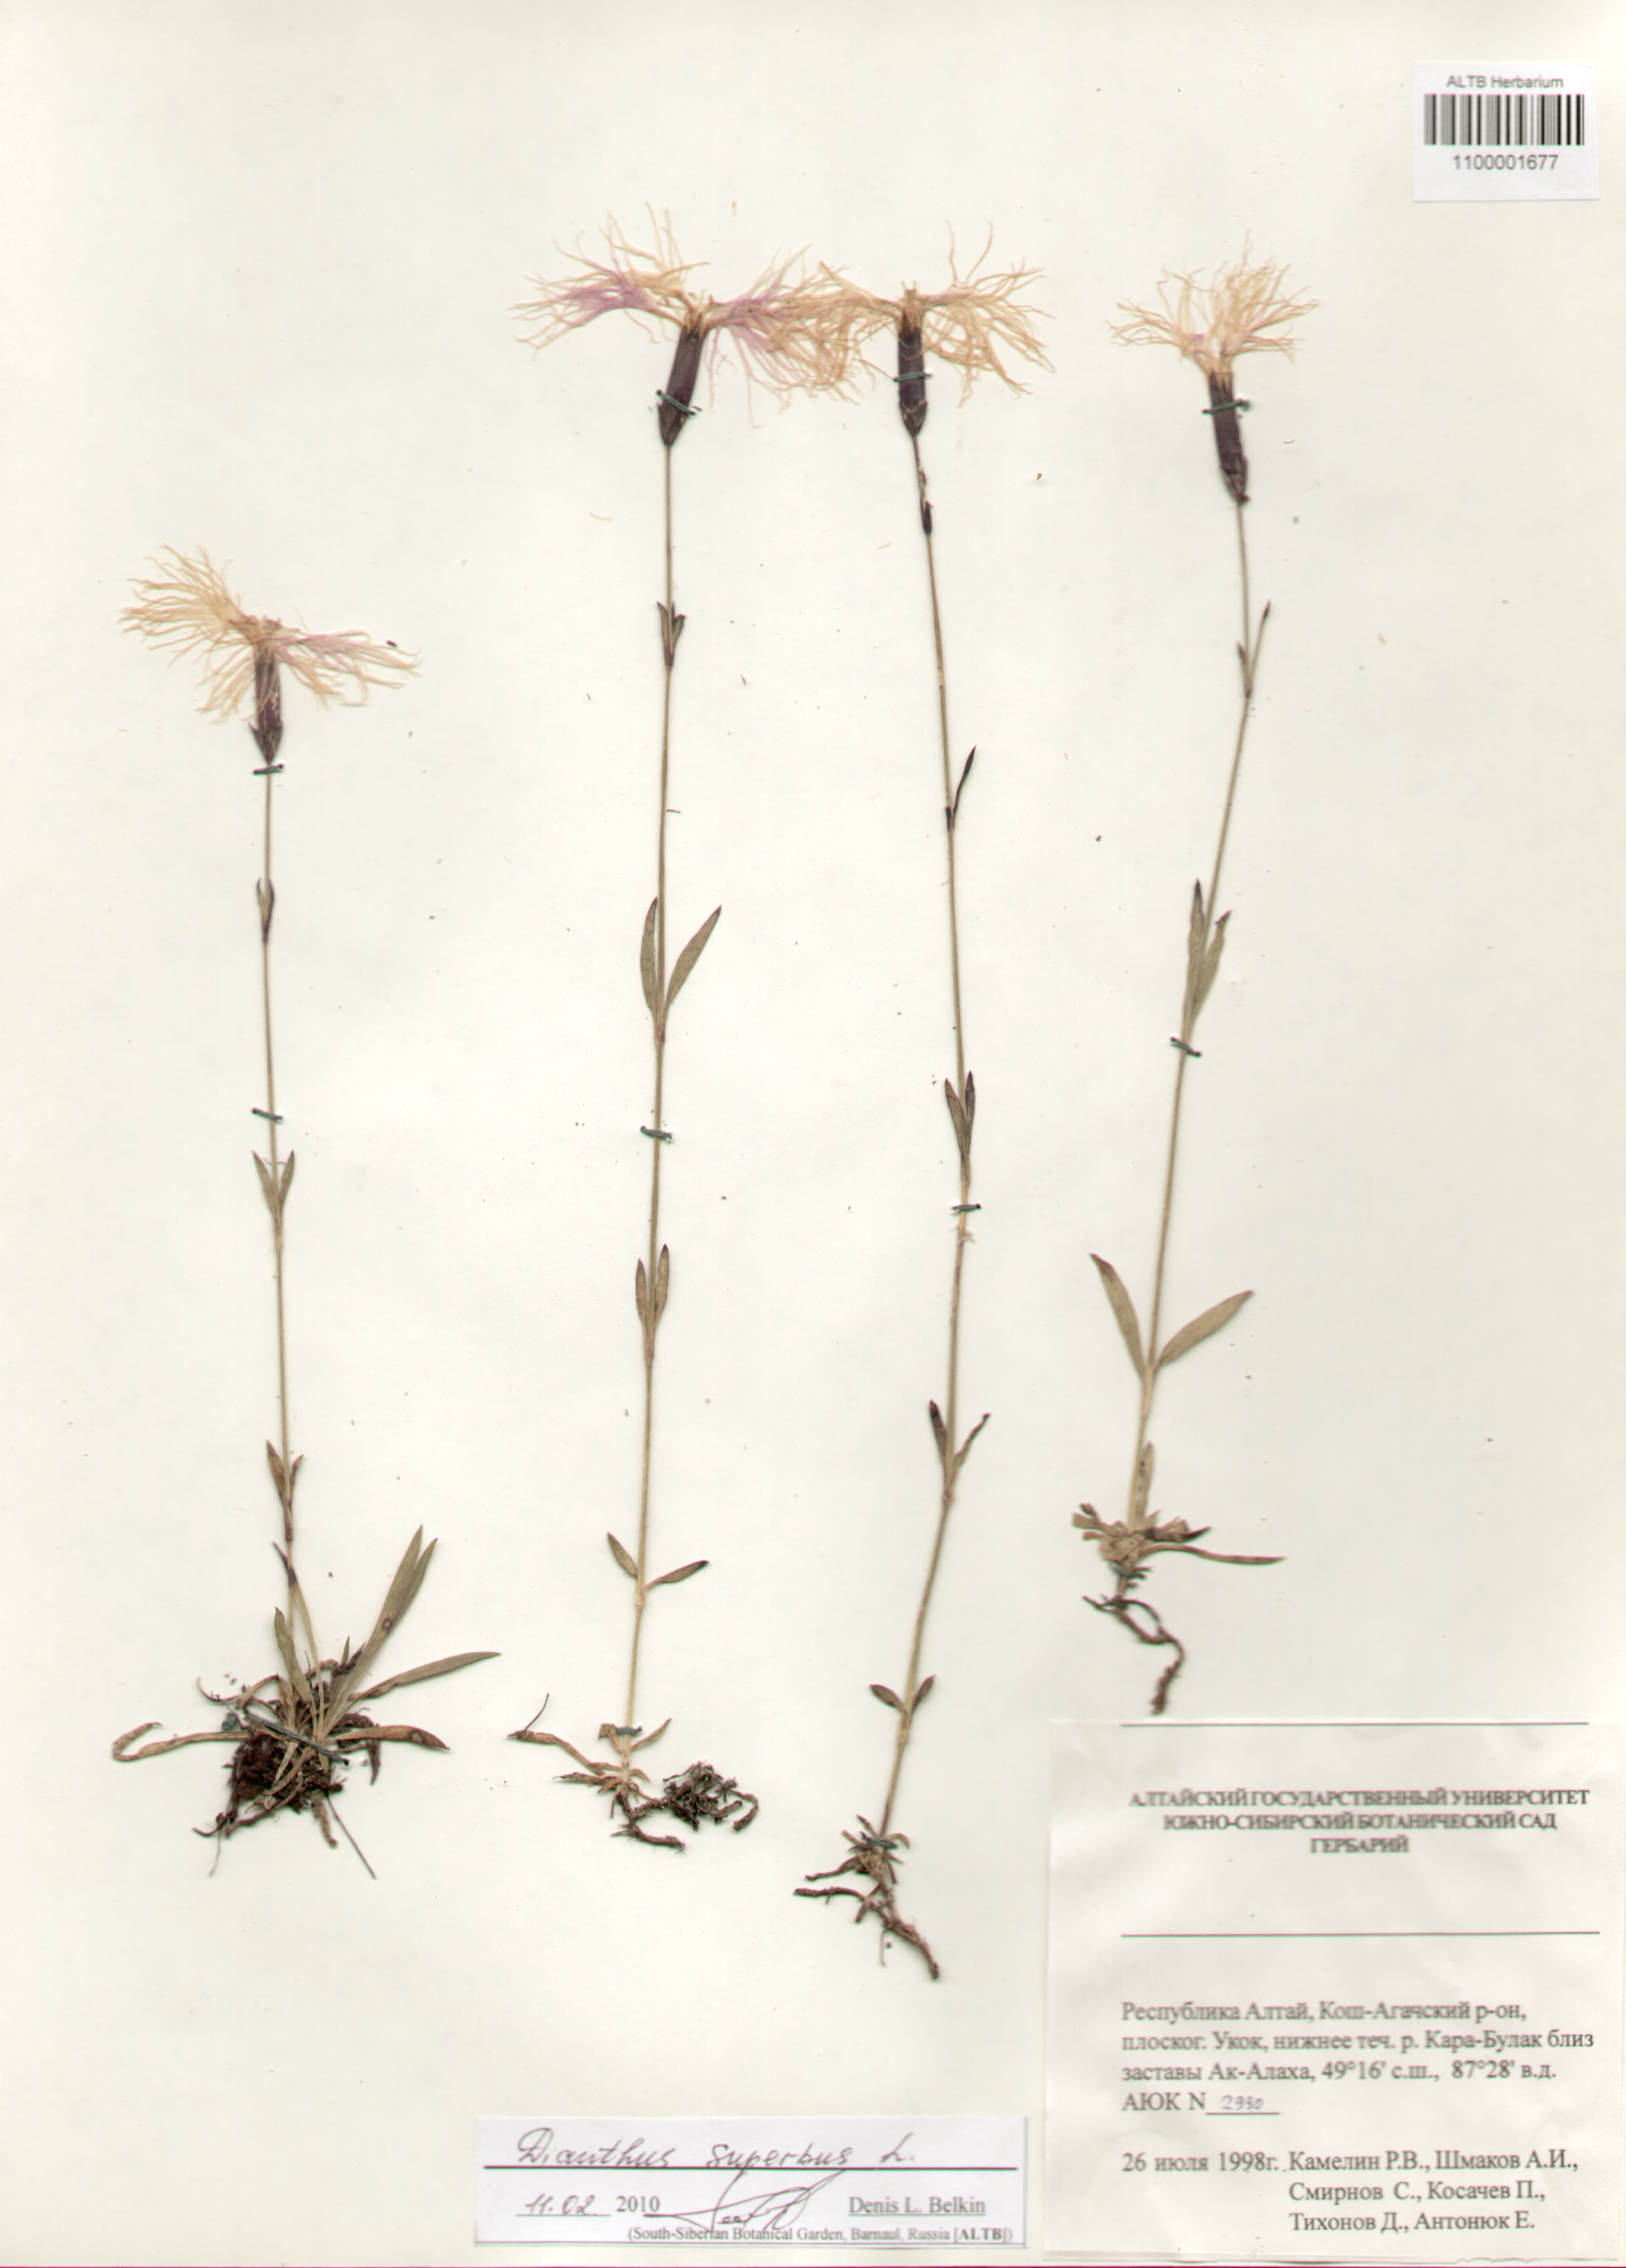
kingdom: Plantae
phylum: Tracheophyta
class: Magnoliopsida
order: Caryophyllales
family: Caryophyllaceae
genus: Dianthus
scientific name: Dianthus superbus
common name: Fringed pink
